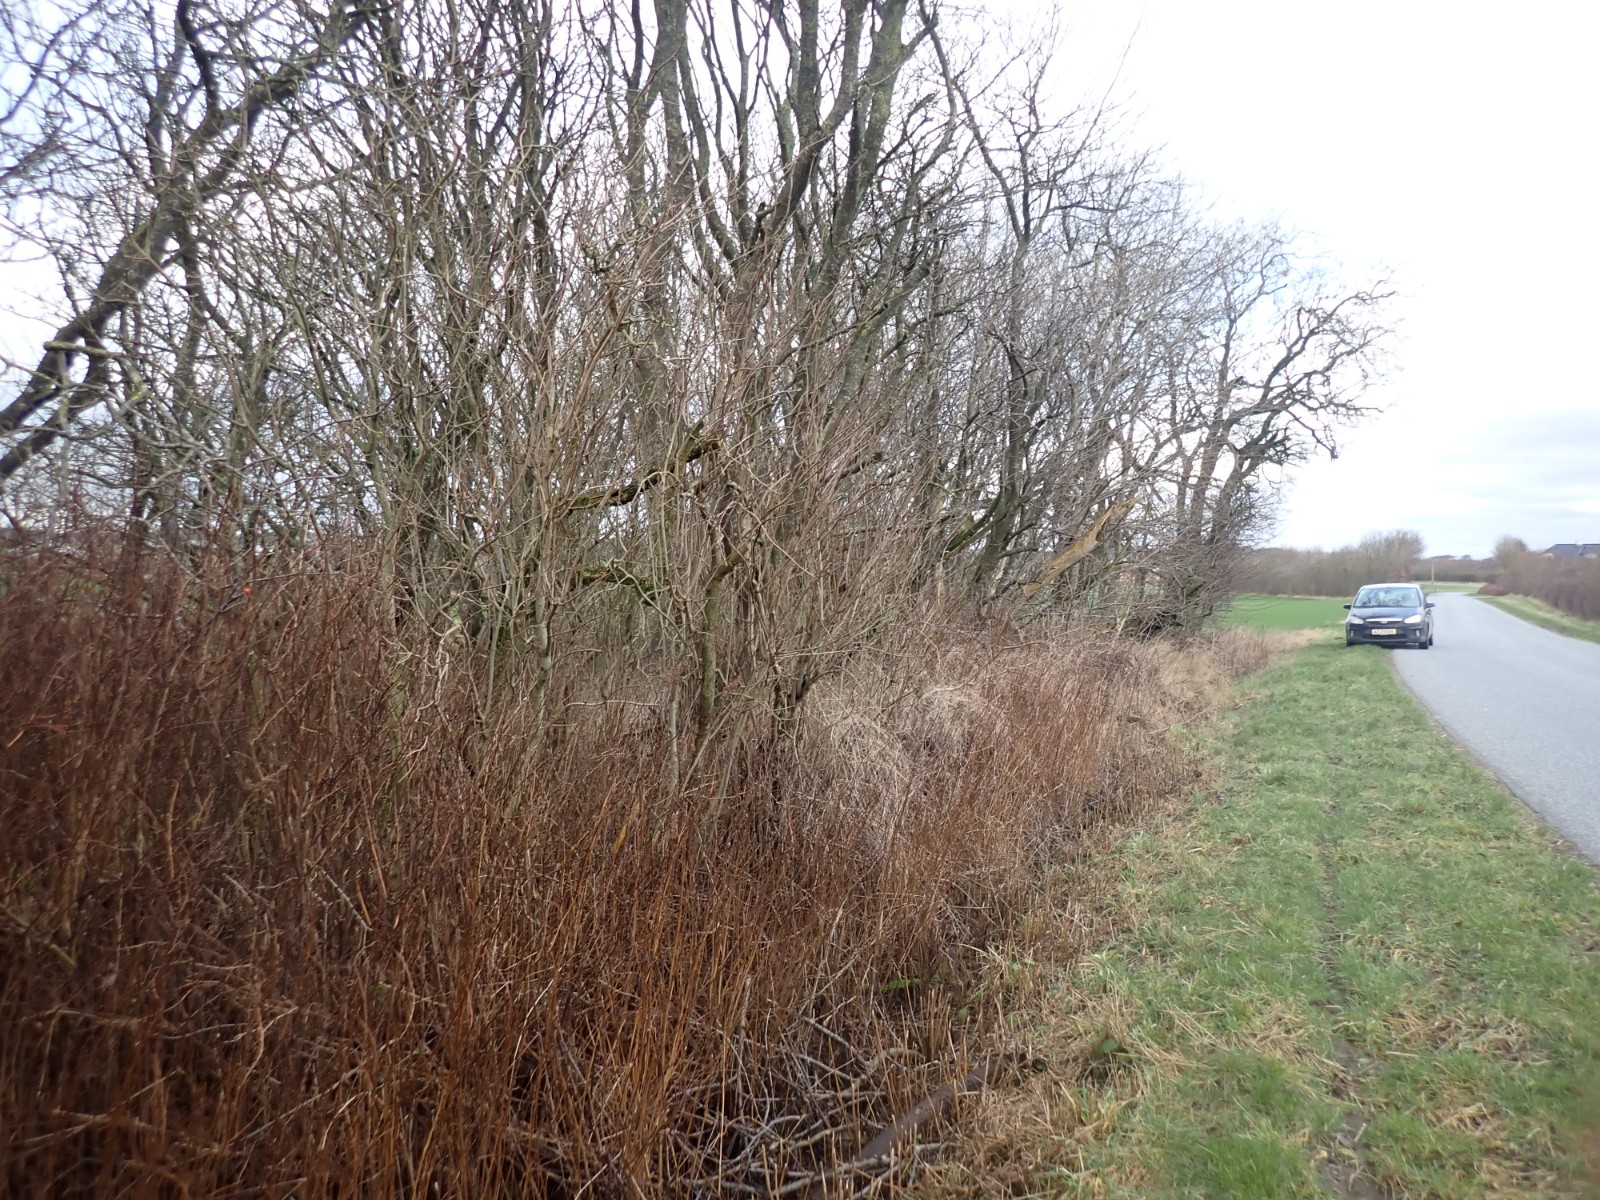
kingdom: Fungi
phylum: Ascomycota
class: Pezizomycetes
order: Pezizales
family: Sarcoscyphaceae
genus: Sarcoscypha
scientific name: Sarcoscypha austriaca
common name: krølhåret pragtbæger
